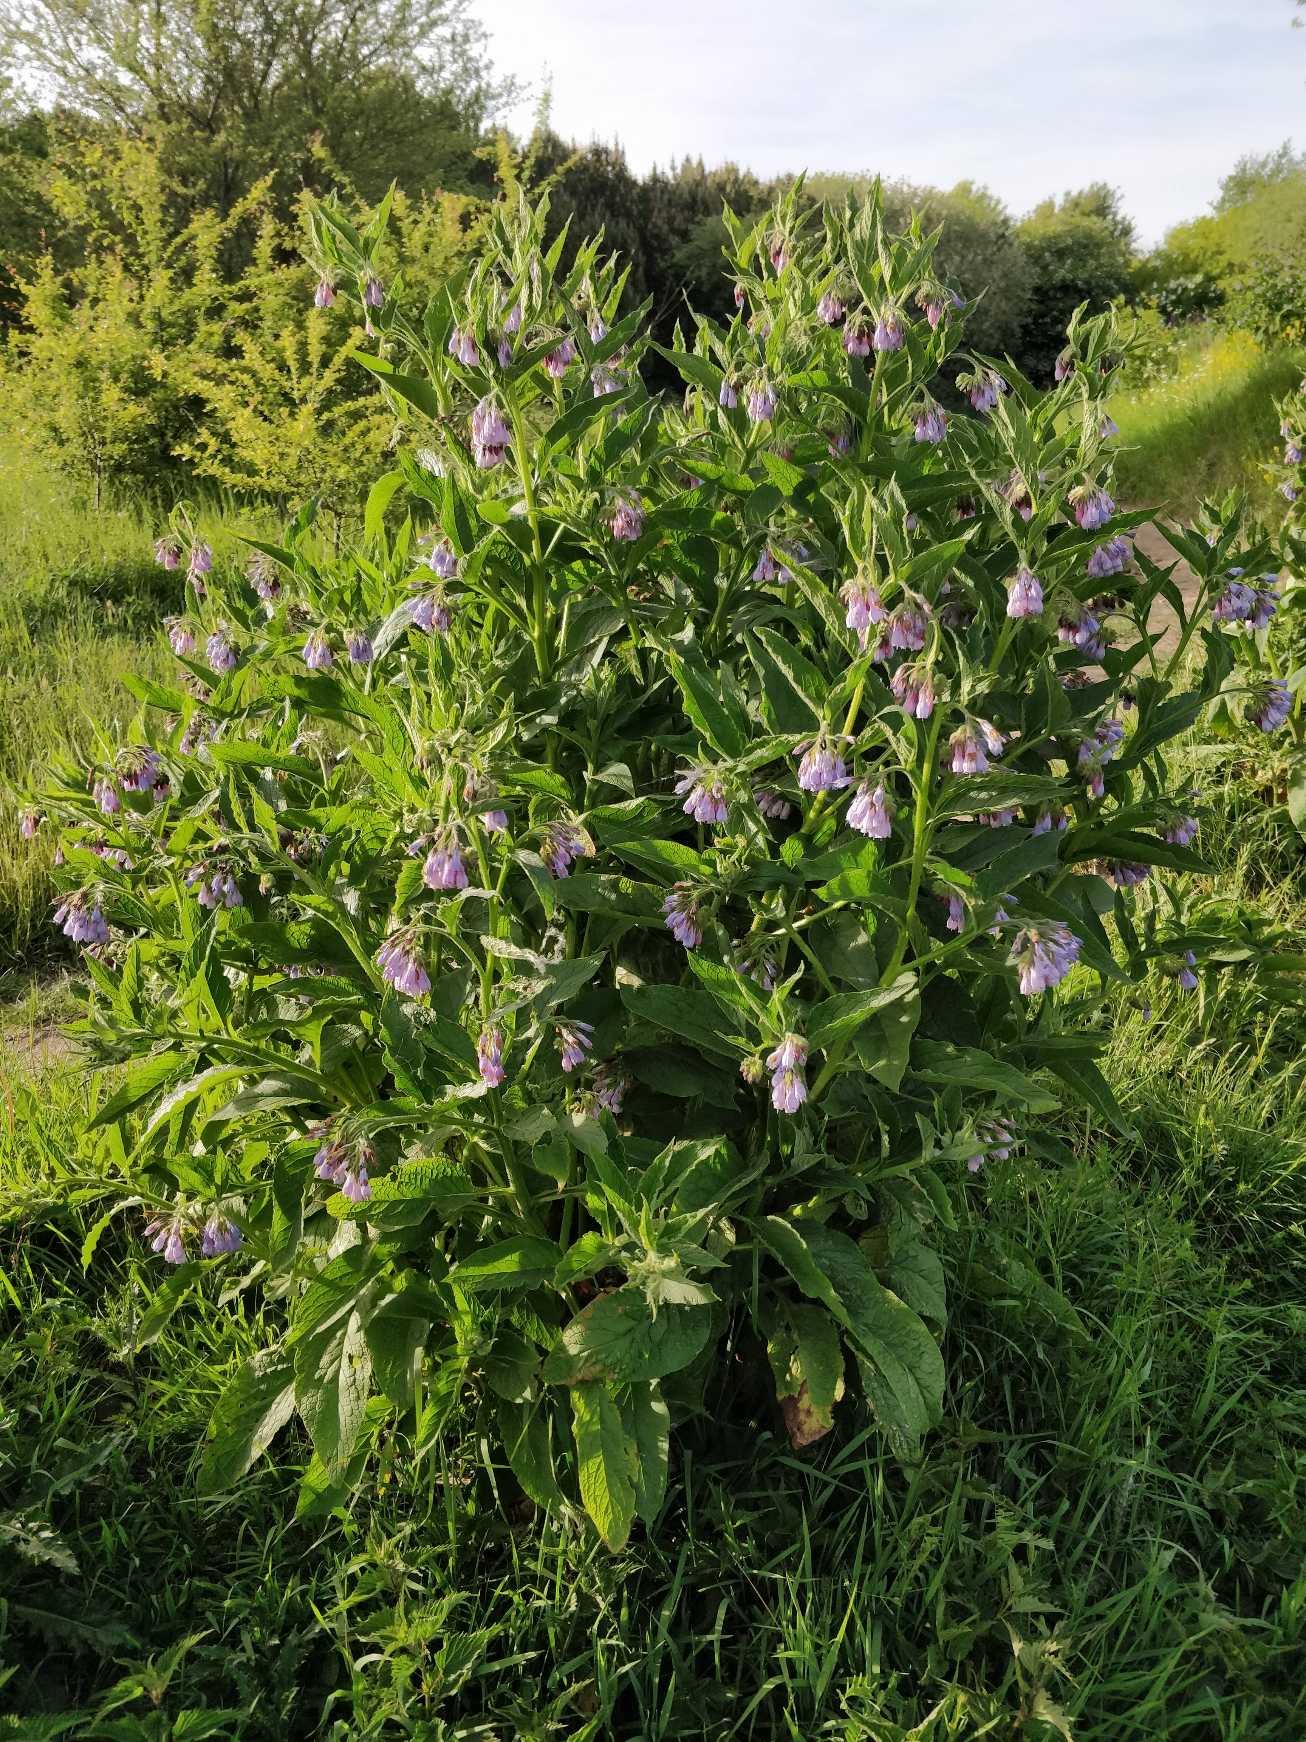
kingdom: Plantae
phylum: Tracheophyta
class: Magnoliopsida
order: Boraginales
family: Boraginaceae
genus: Symphytum
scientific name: Symphytum uplandicum
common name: Foder-kulsukker
